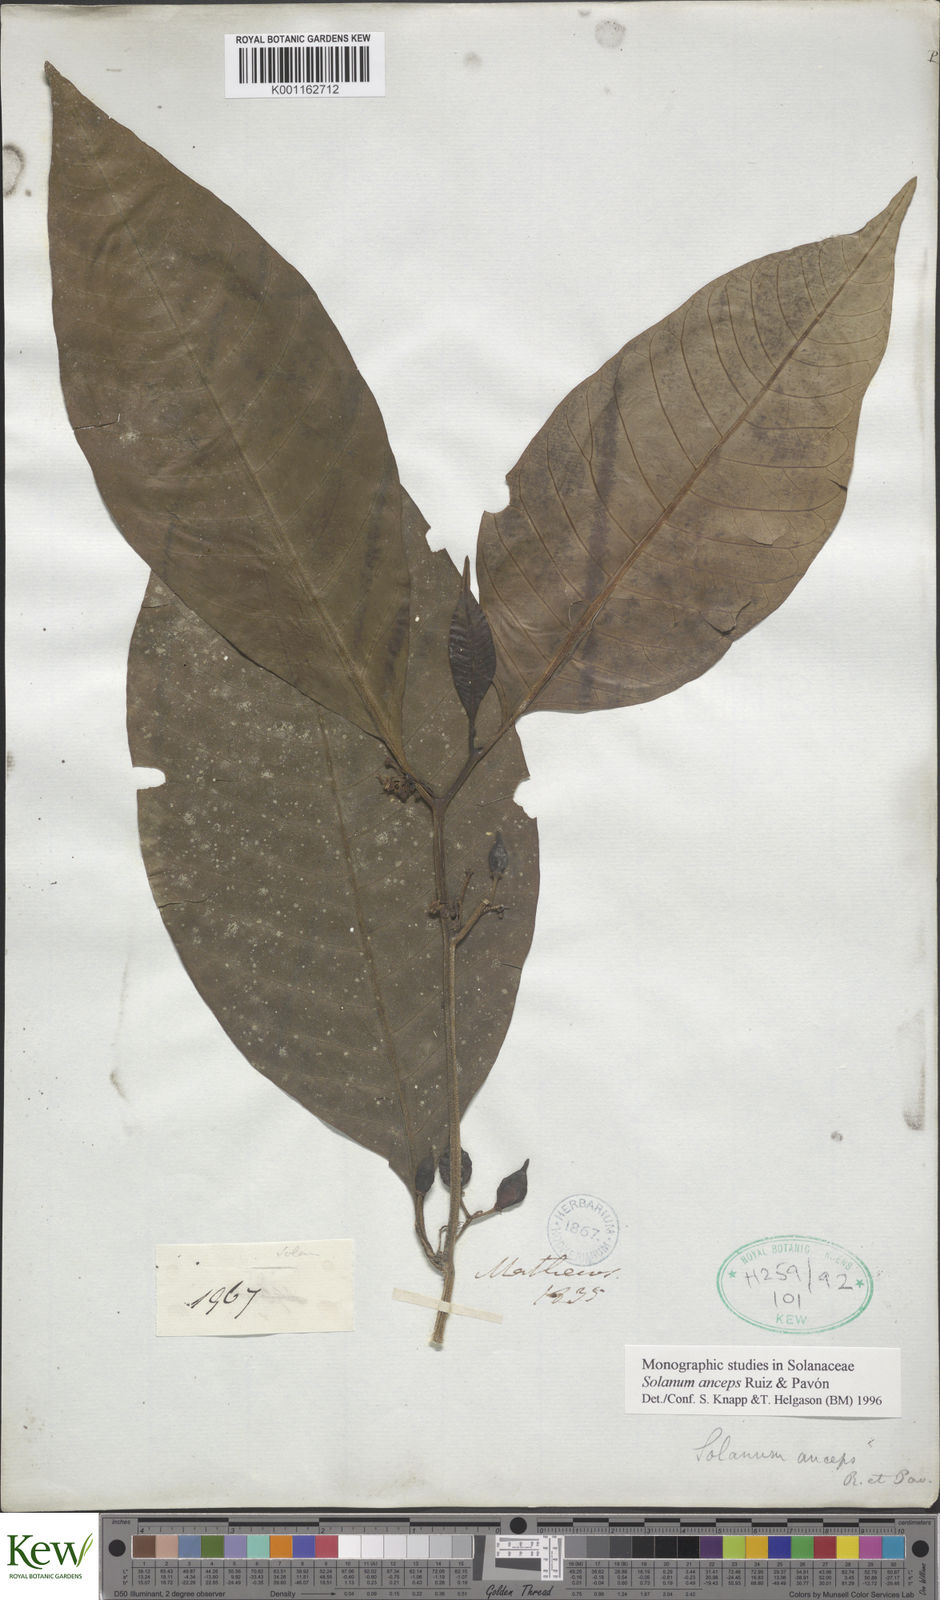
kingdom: Plantae
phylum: Tracheophyta
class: Magnoliopsida
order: Solanales
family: Solanaceae
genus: Solanum
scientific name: Solanum anceps
